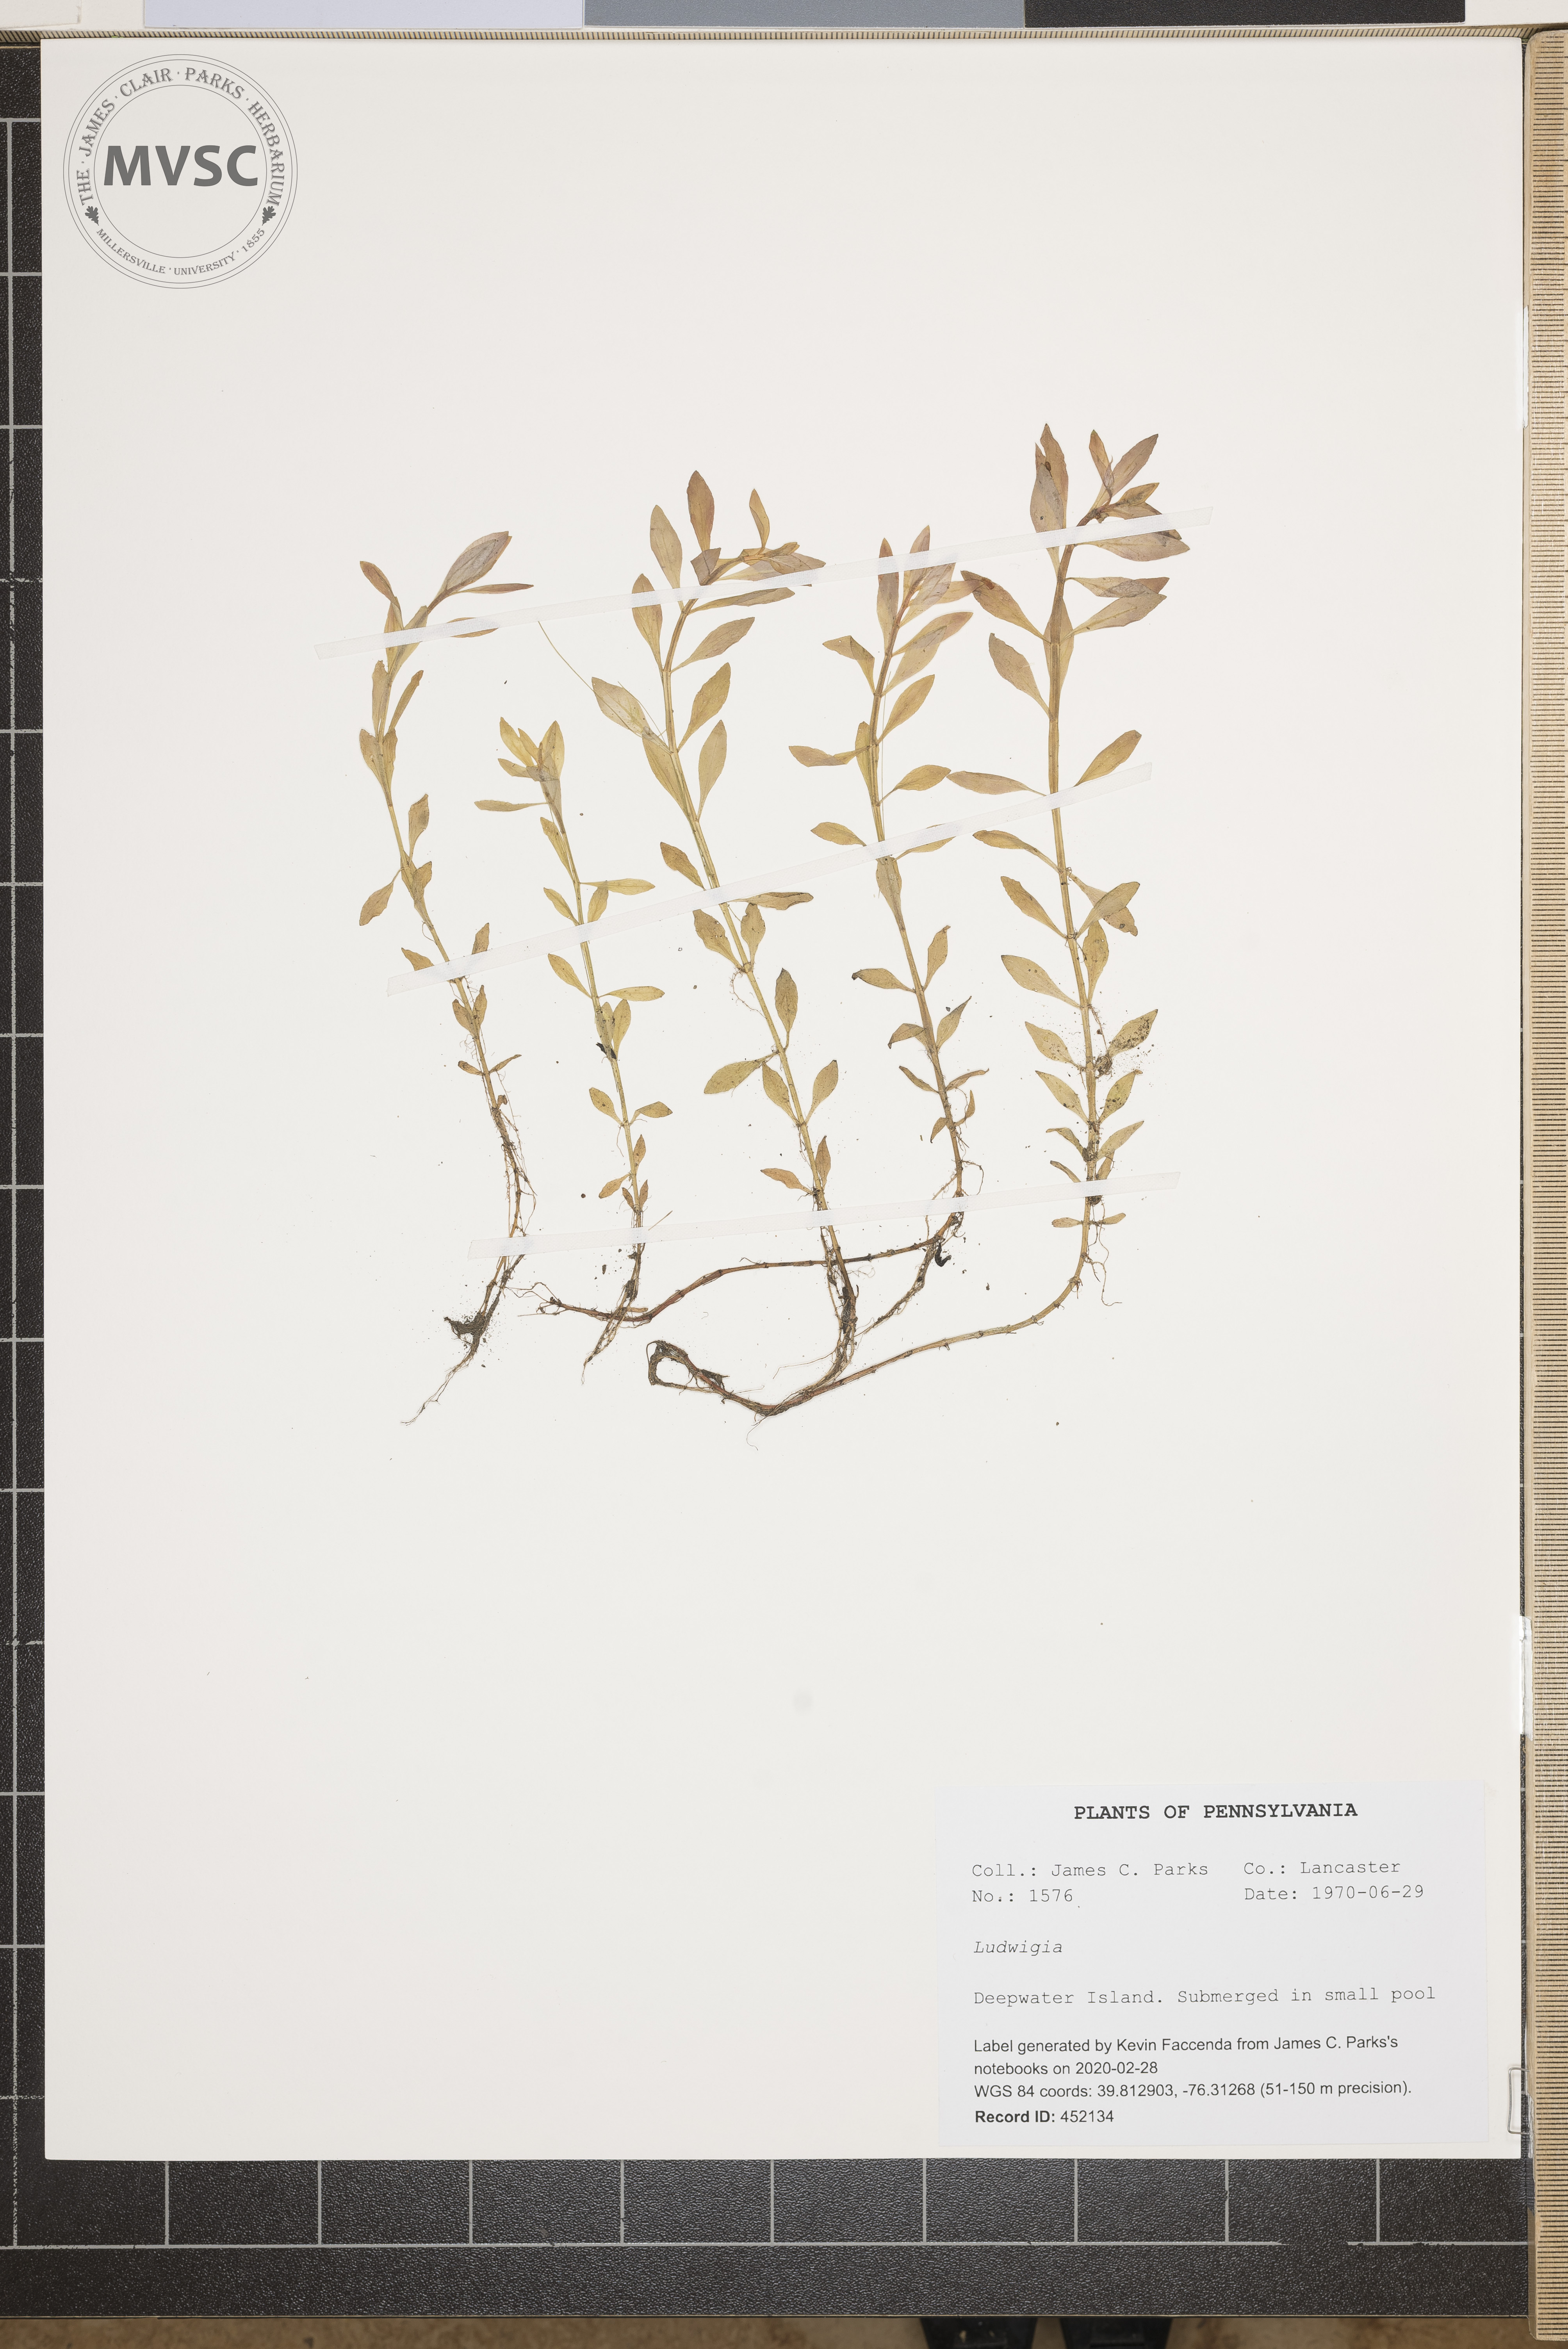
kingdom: Plantae
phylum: Tracheophyta
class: Magnoliopsida
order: Myrtales
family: Onagraceae
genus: Ludwigia
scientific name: Ludwigia
